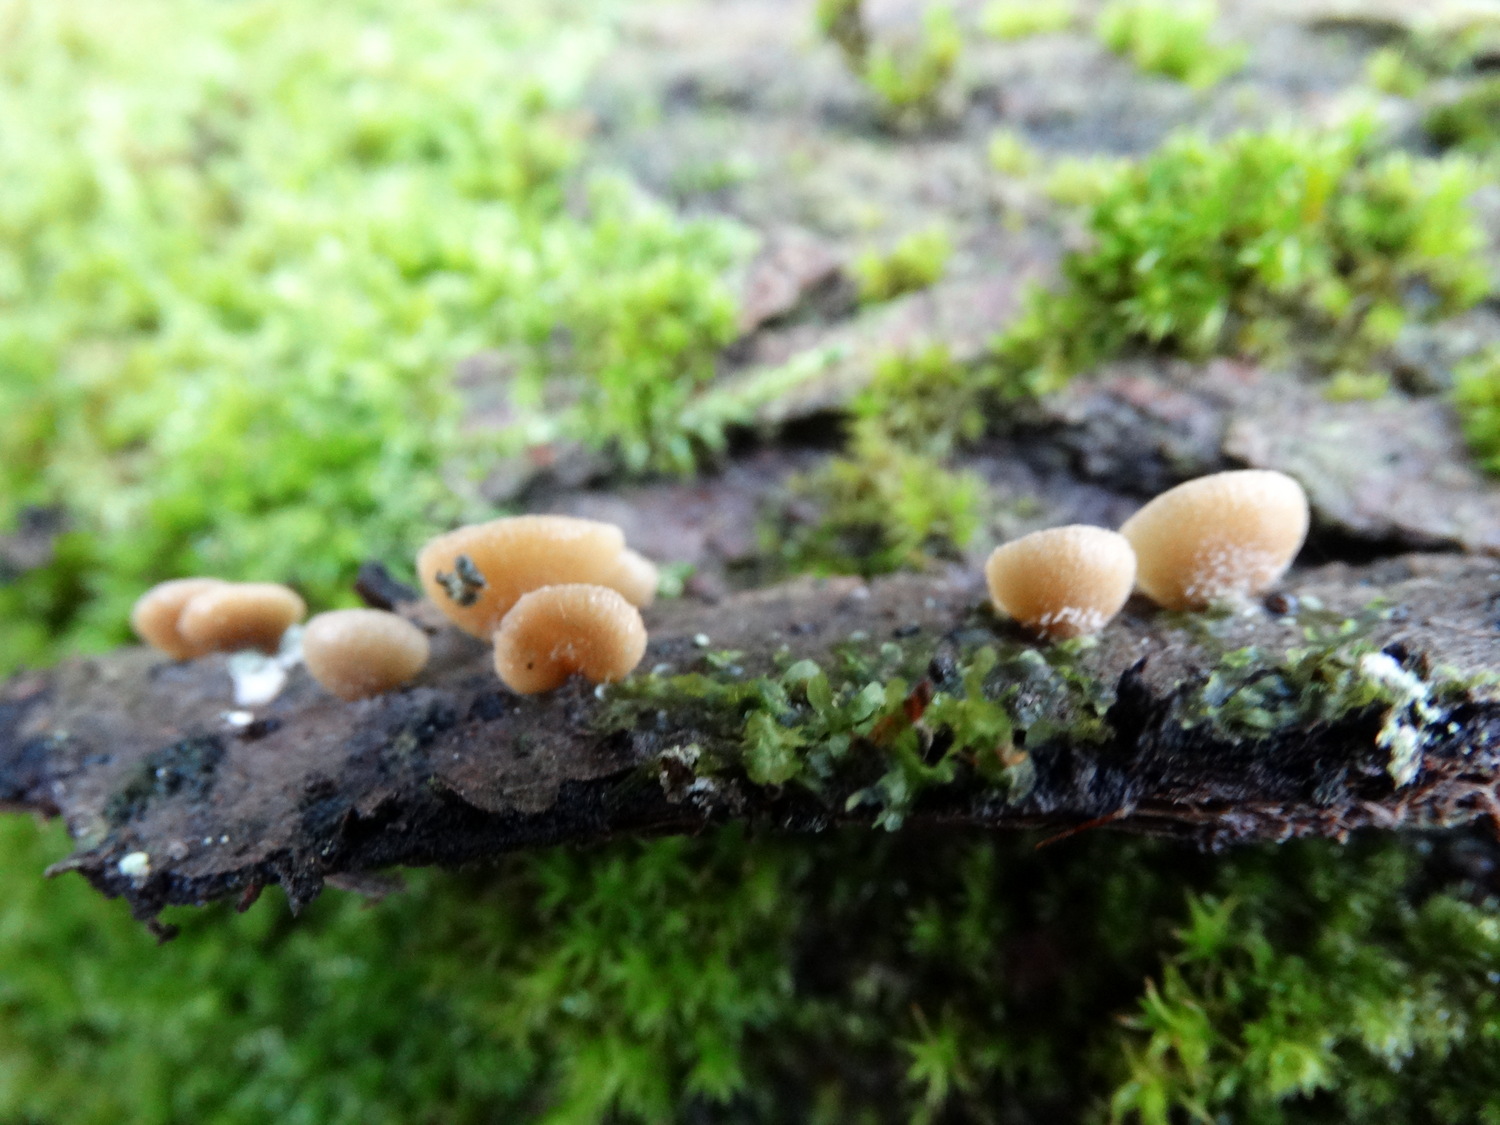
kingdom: Fungi
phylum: Basidiomycota
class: Agaricomycetes
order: Agaricales
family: Pleurotaceae
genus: Hohenbuehelia
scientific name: Hohenbuehelia fluxilis
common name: pile-filthat
